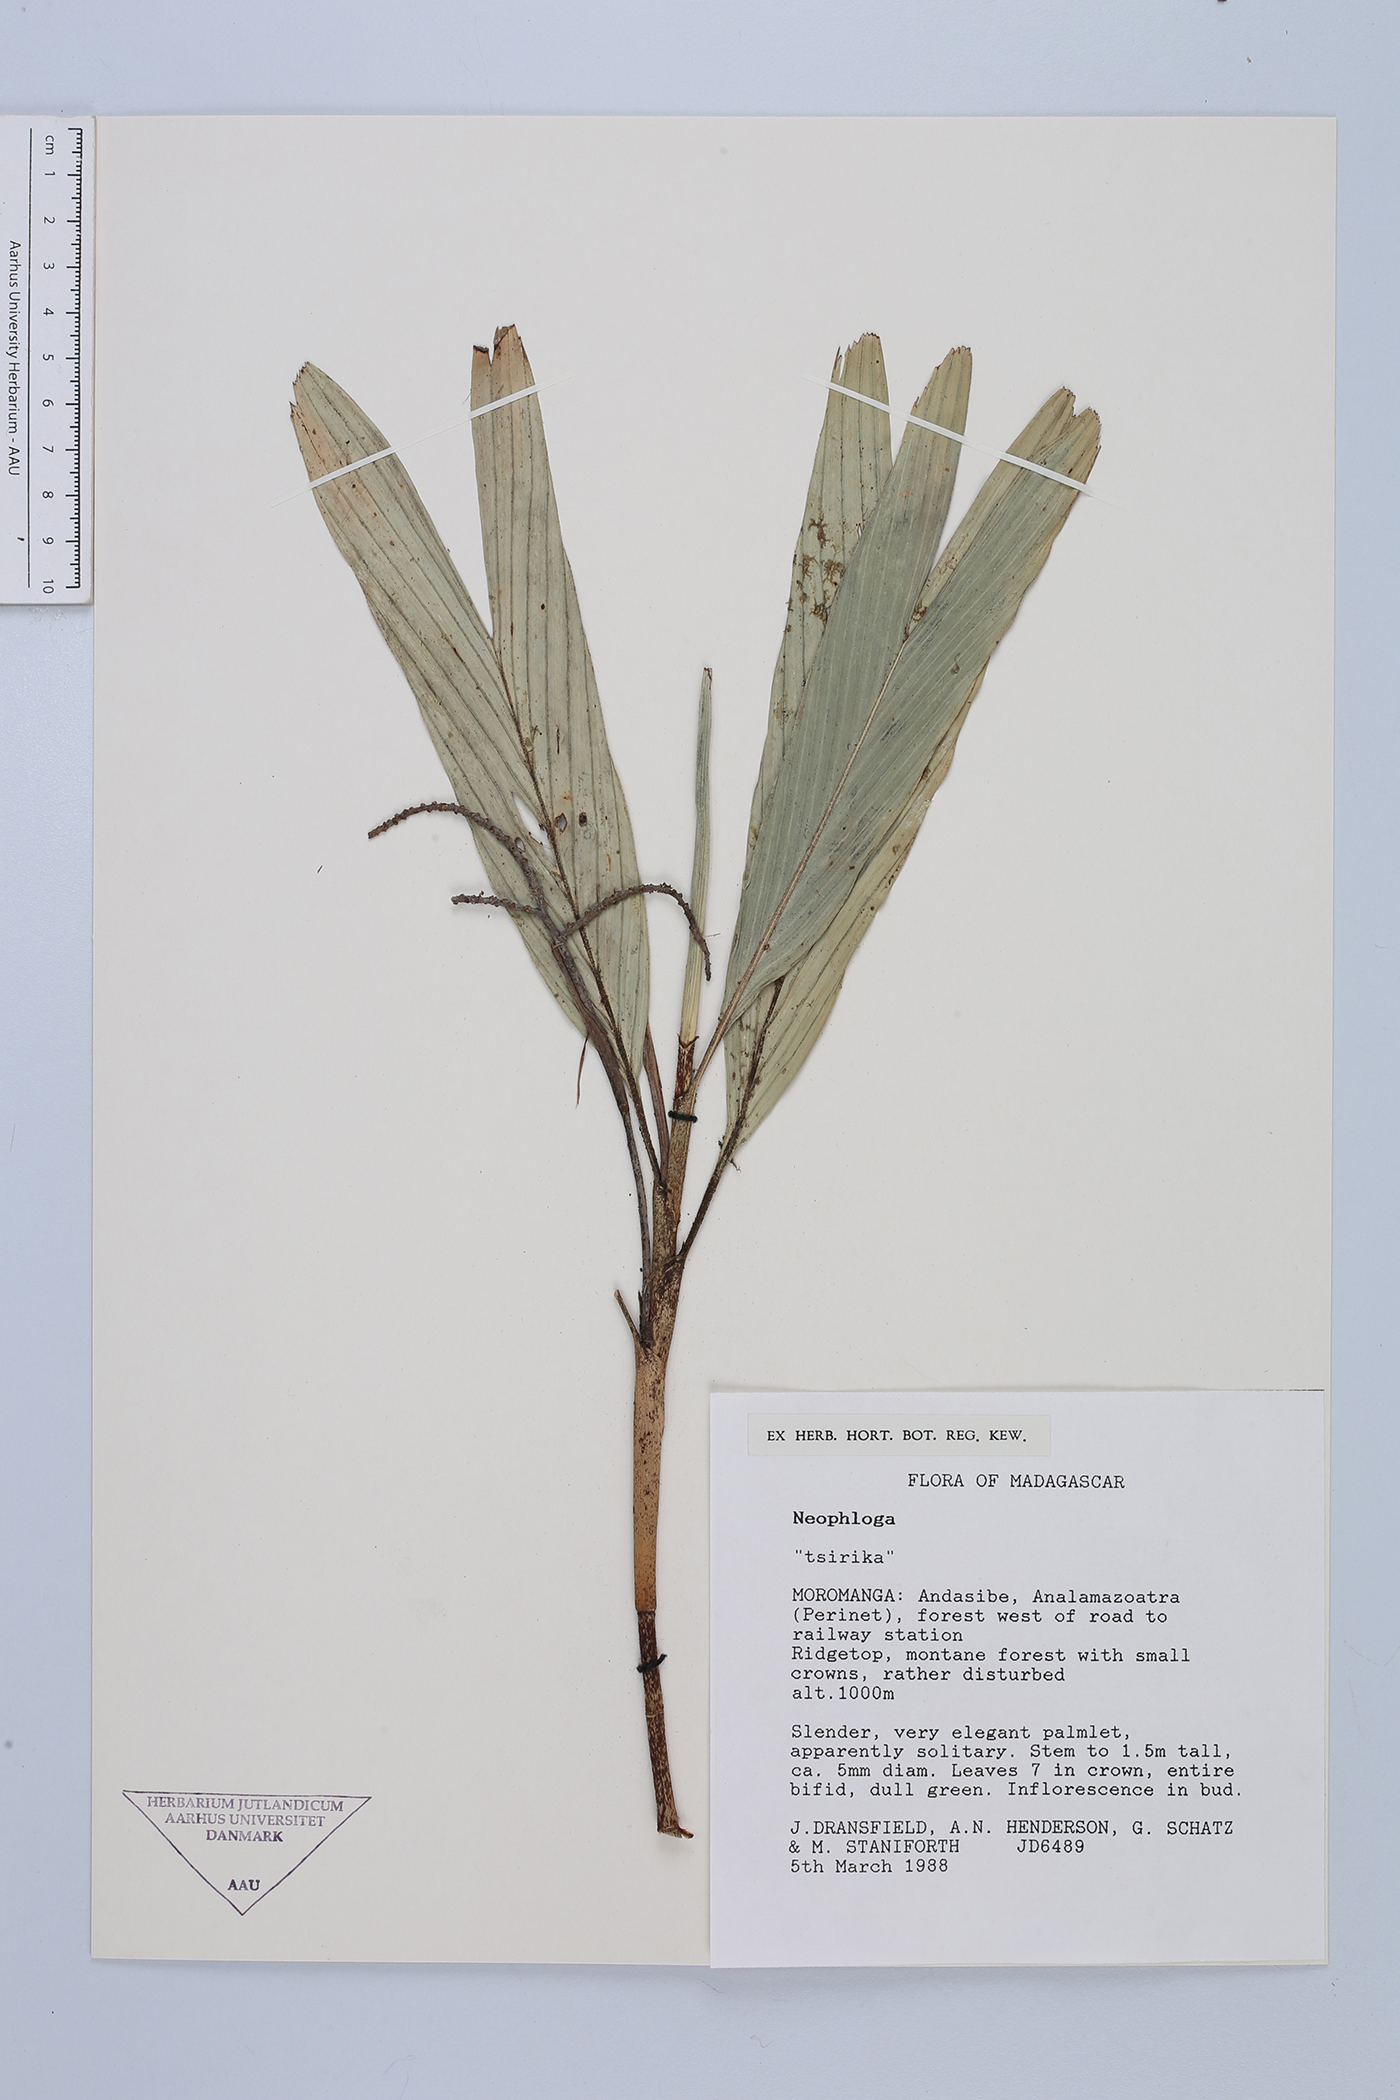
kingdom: Plantae
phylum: Tracheophyta
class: Liliopsida
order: Arecales
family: Arecaceae
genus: Dypsis
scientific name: Dypsis
